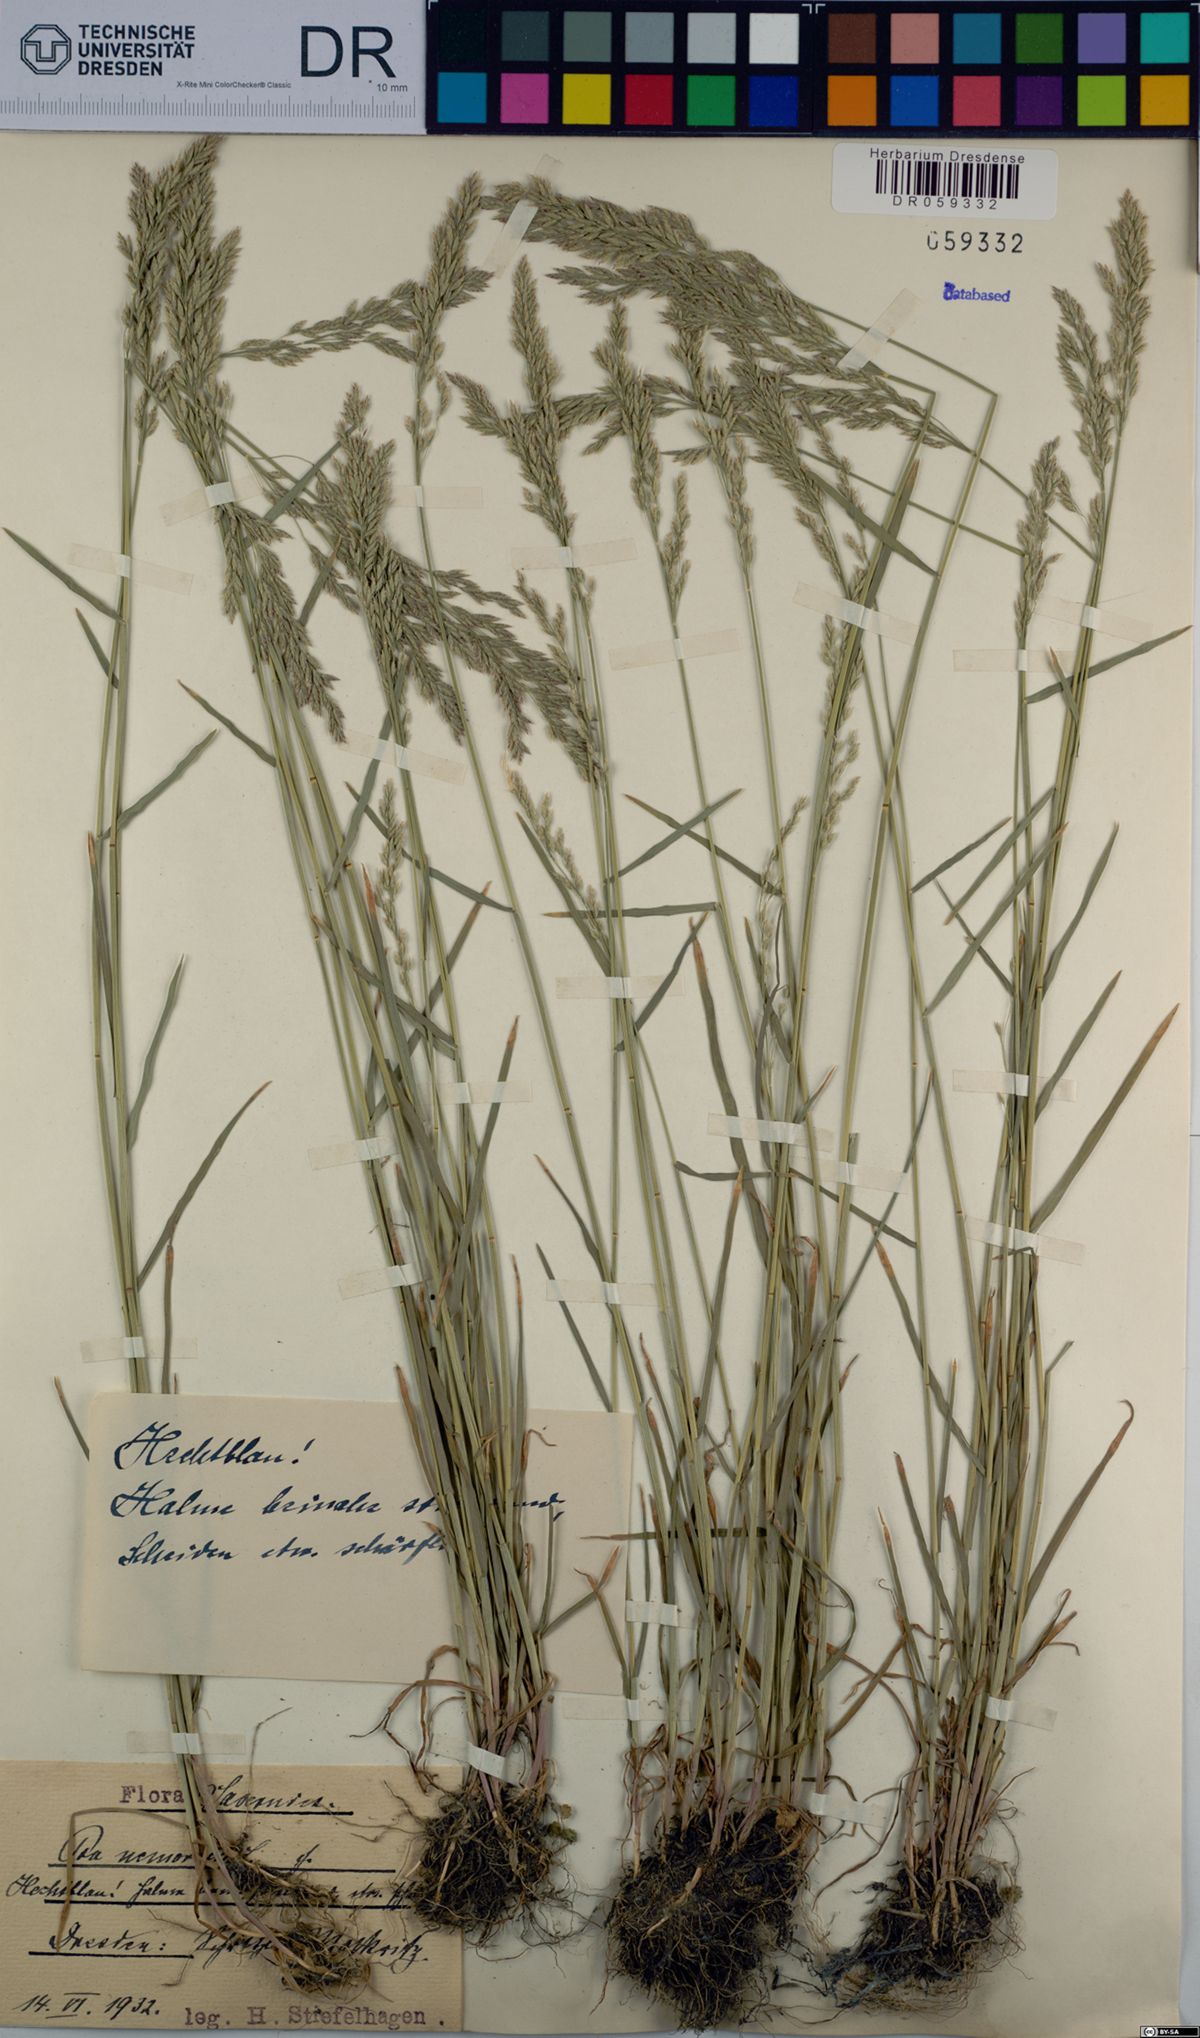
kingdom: Plantae
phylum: Tracheophyta
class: Liliopsida
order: Poales
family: Poaceae
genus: Poa
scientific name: Poa nemoralis
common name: Wood bluegrass
